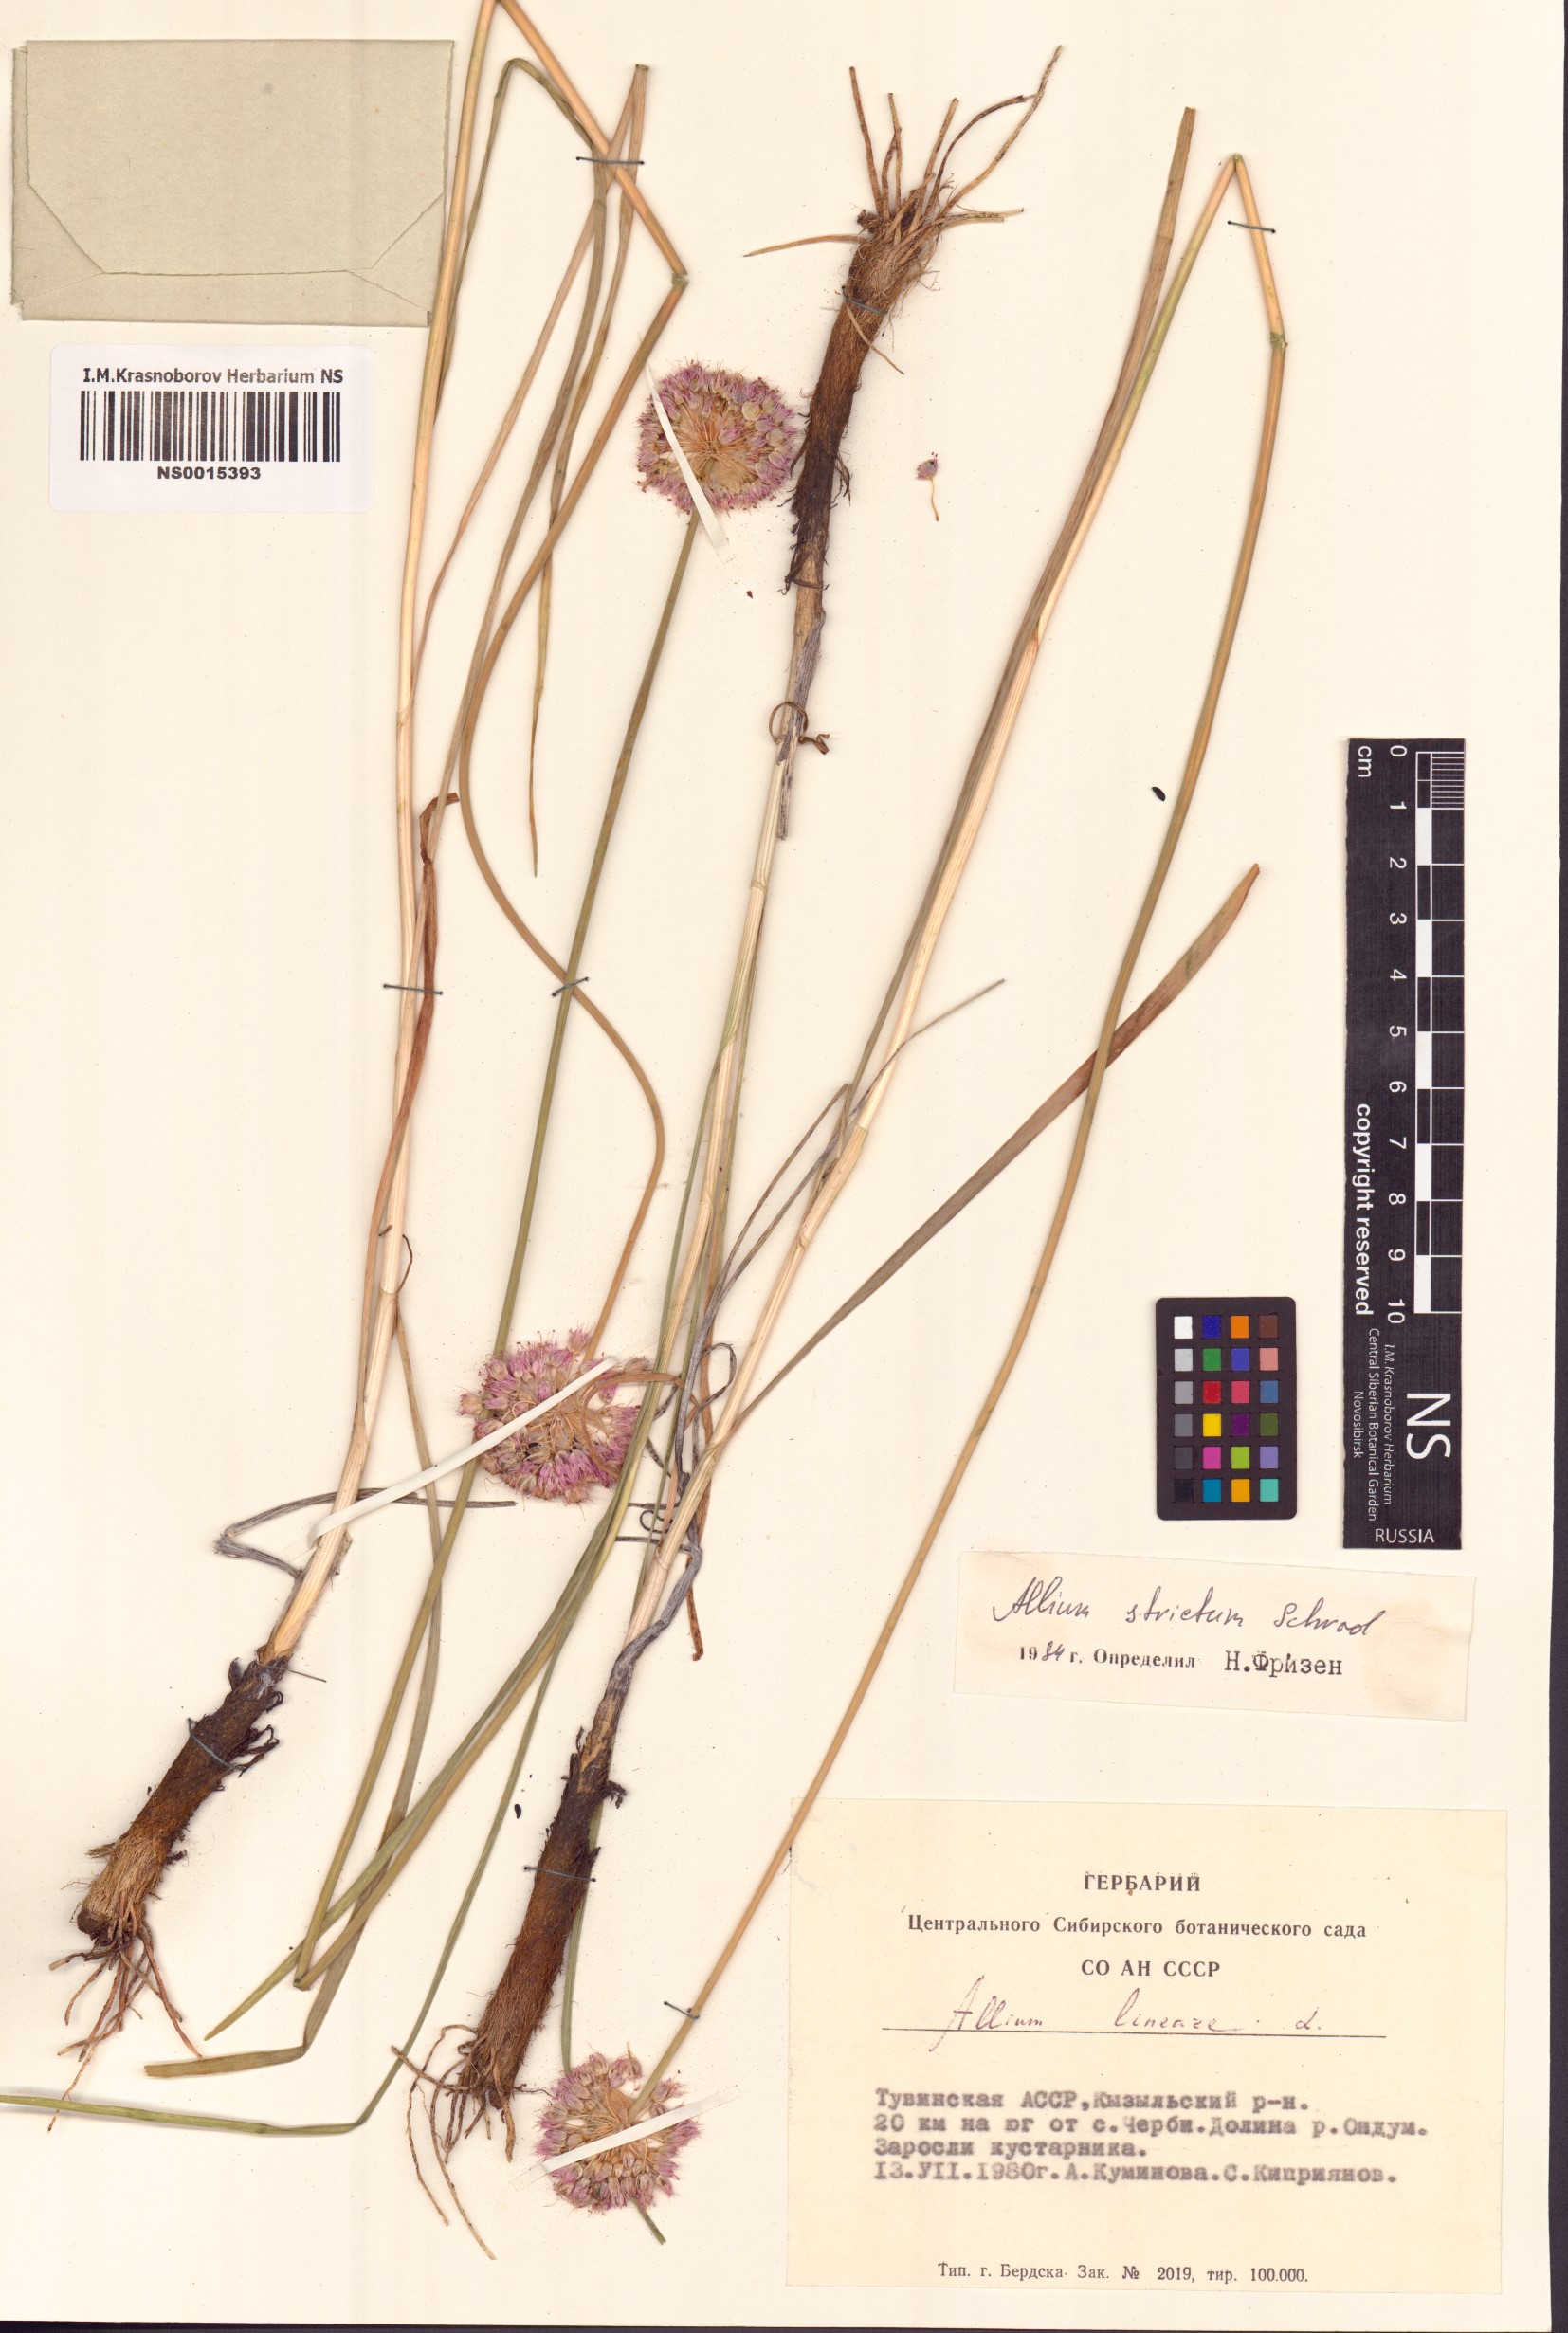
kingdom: Plantae
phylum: Tracheophyta
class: Liliopsida
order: Asparagales
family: Amaryllidaceae
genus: Allium
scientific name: Allium strictum
